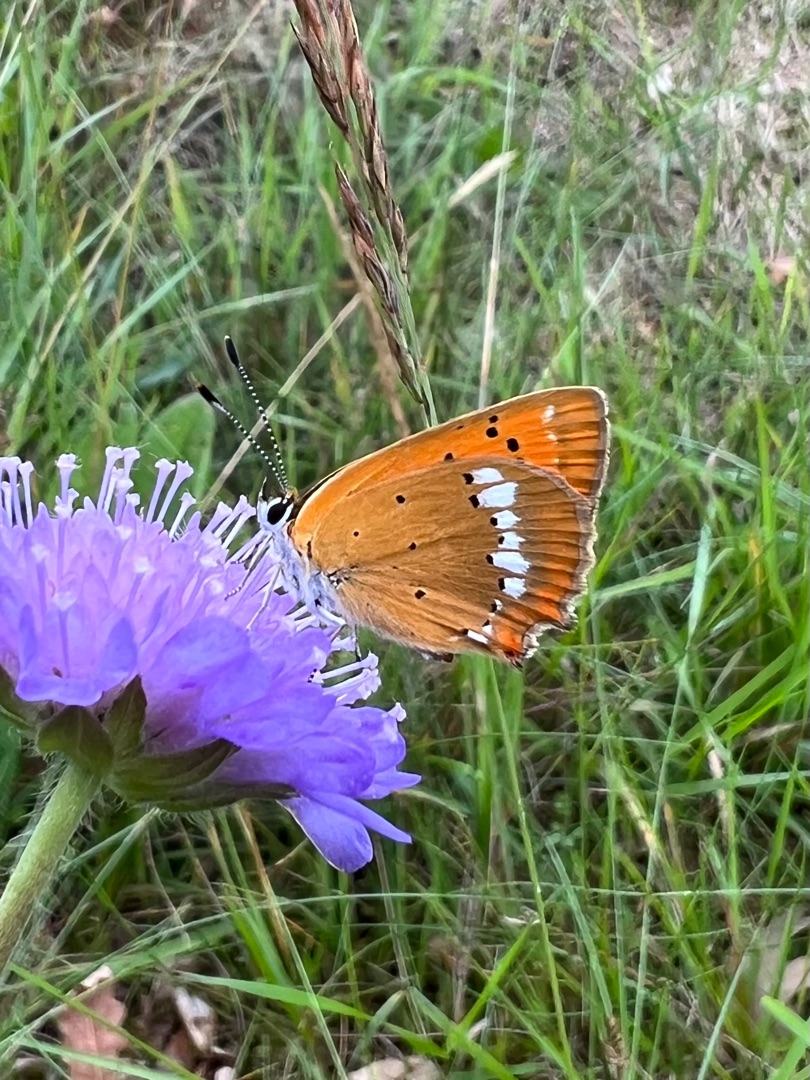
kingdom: Animalia
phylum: Arthropoda
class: Insecta
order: Lepidoptera
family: Lycaenidae
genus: Lycaena
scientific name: Lycaena virgaureae
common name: Dukatsommerfugl
